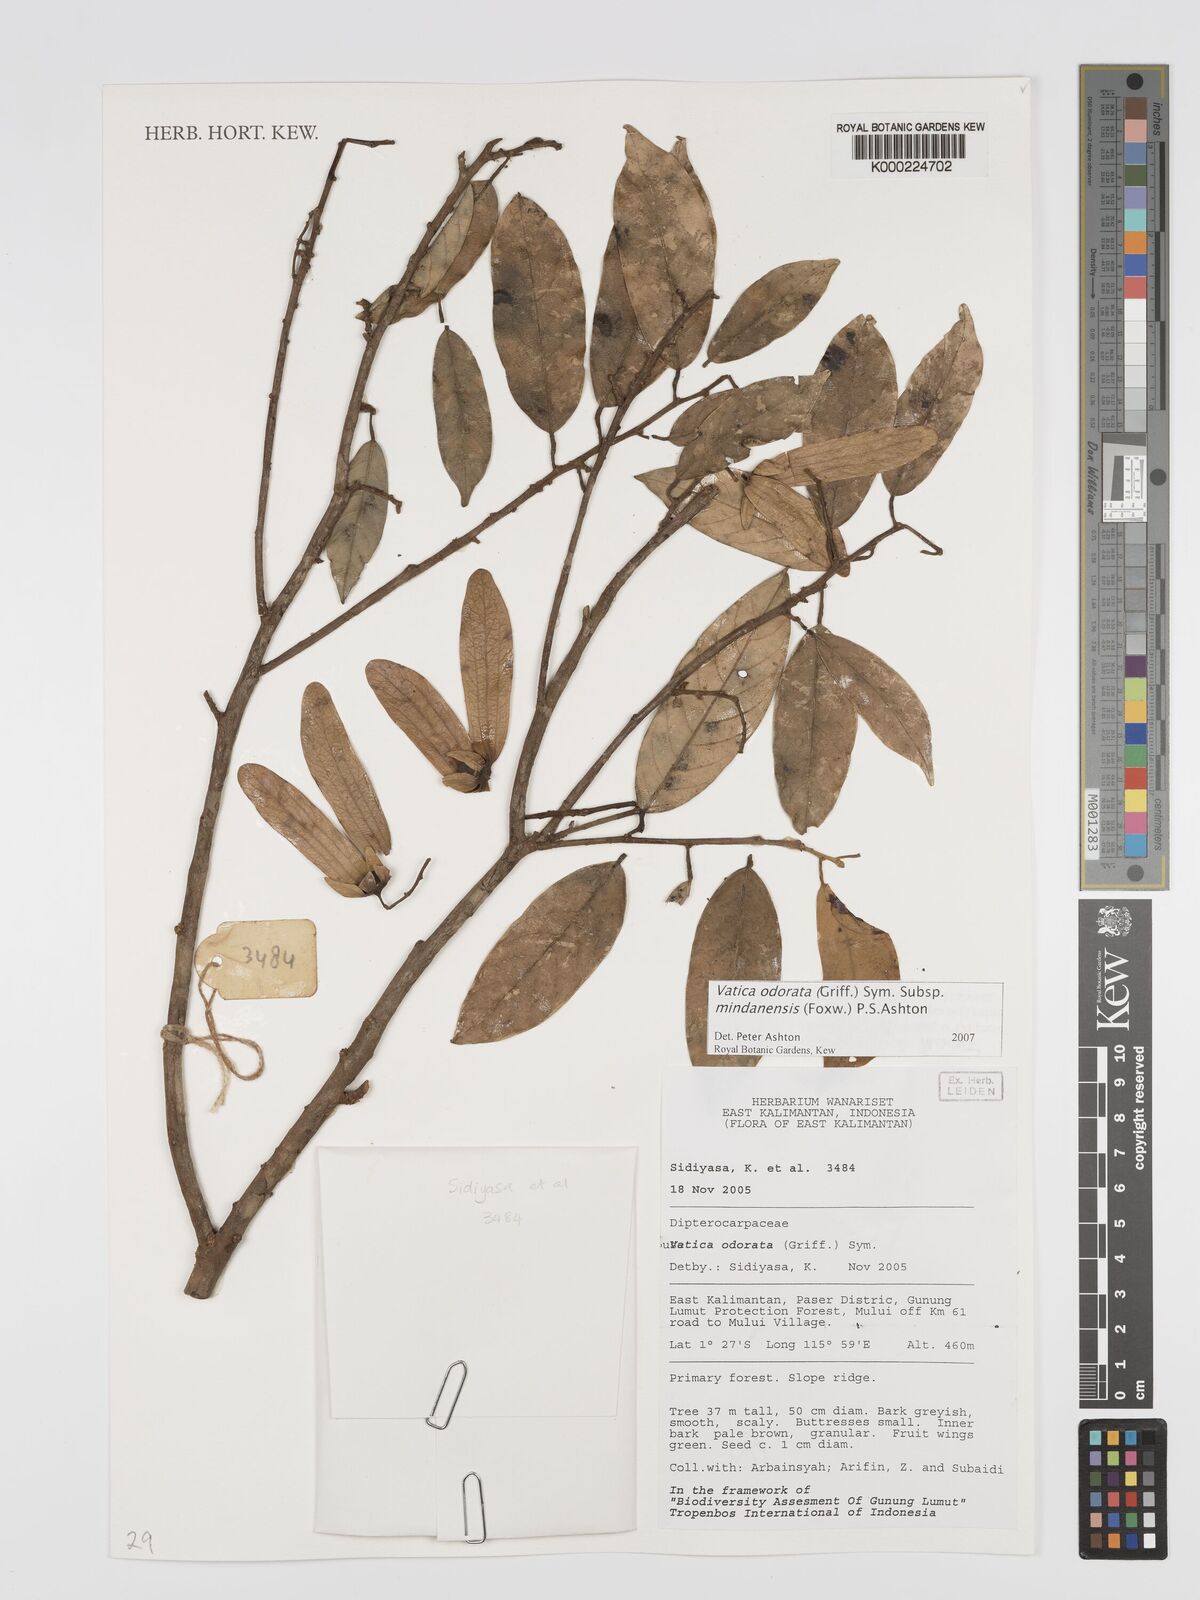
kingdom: Plantae
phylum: Tracheophyta
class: Magnoliopsida
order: Malvales
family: Dipterocarpaceae
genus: Vatica
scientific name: Vatica odorata
